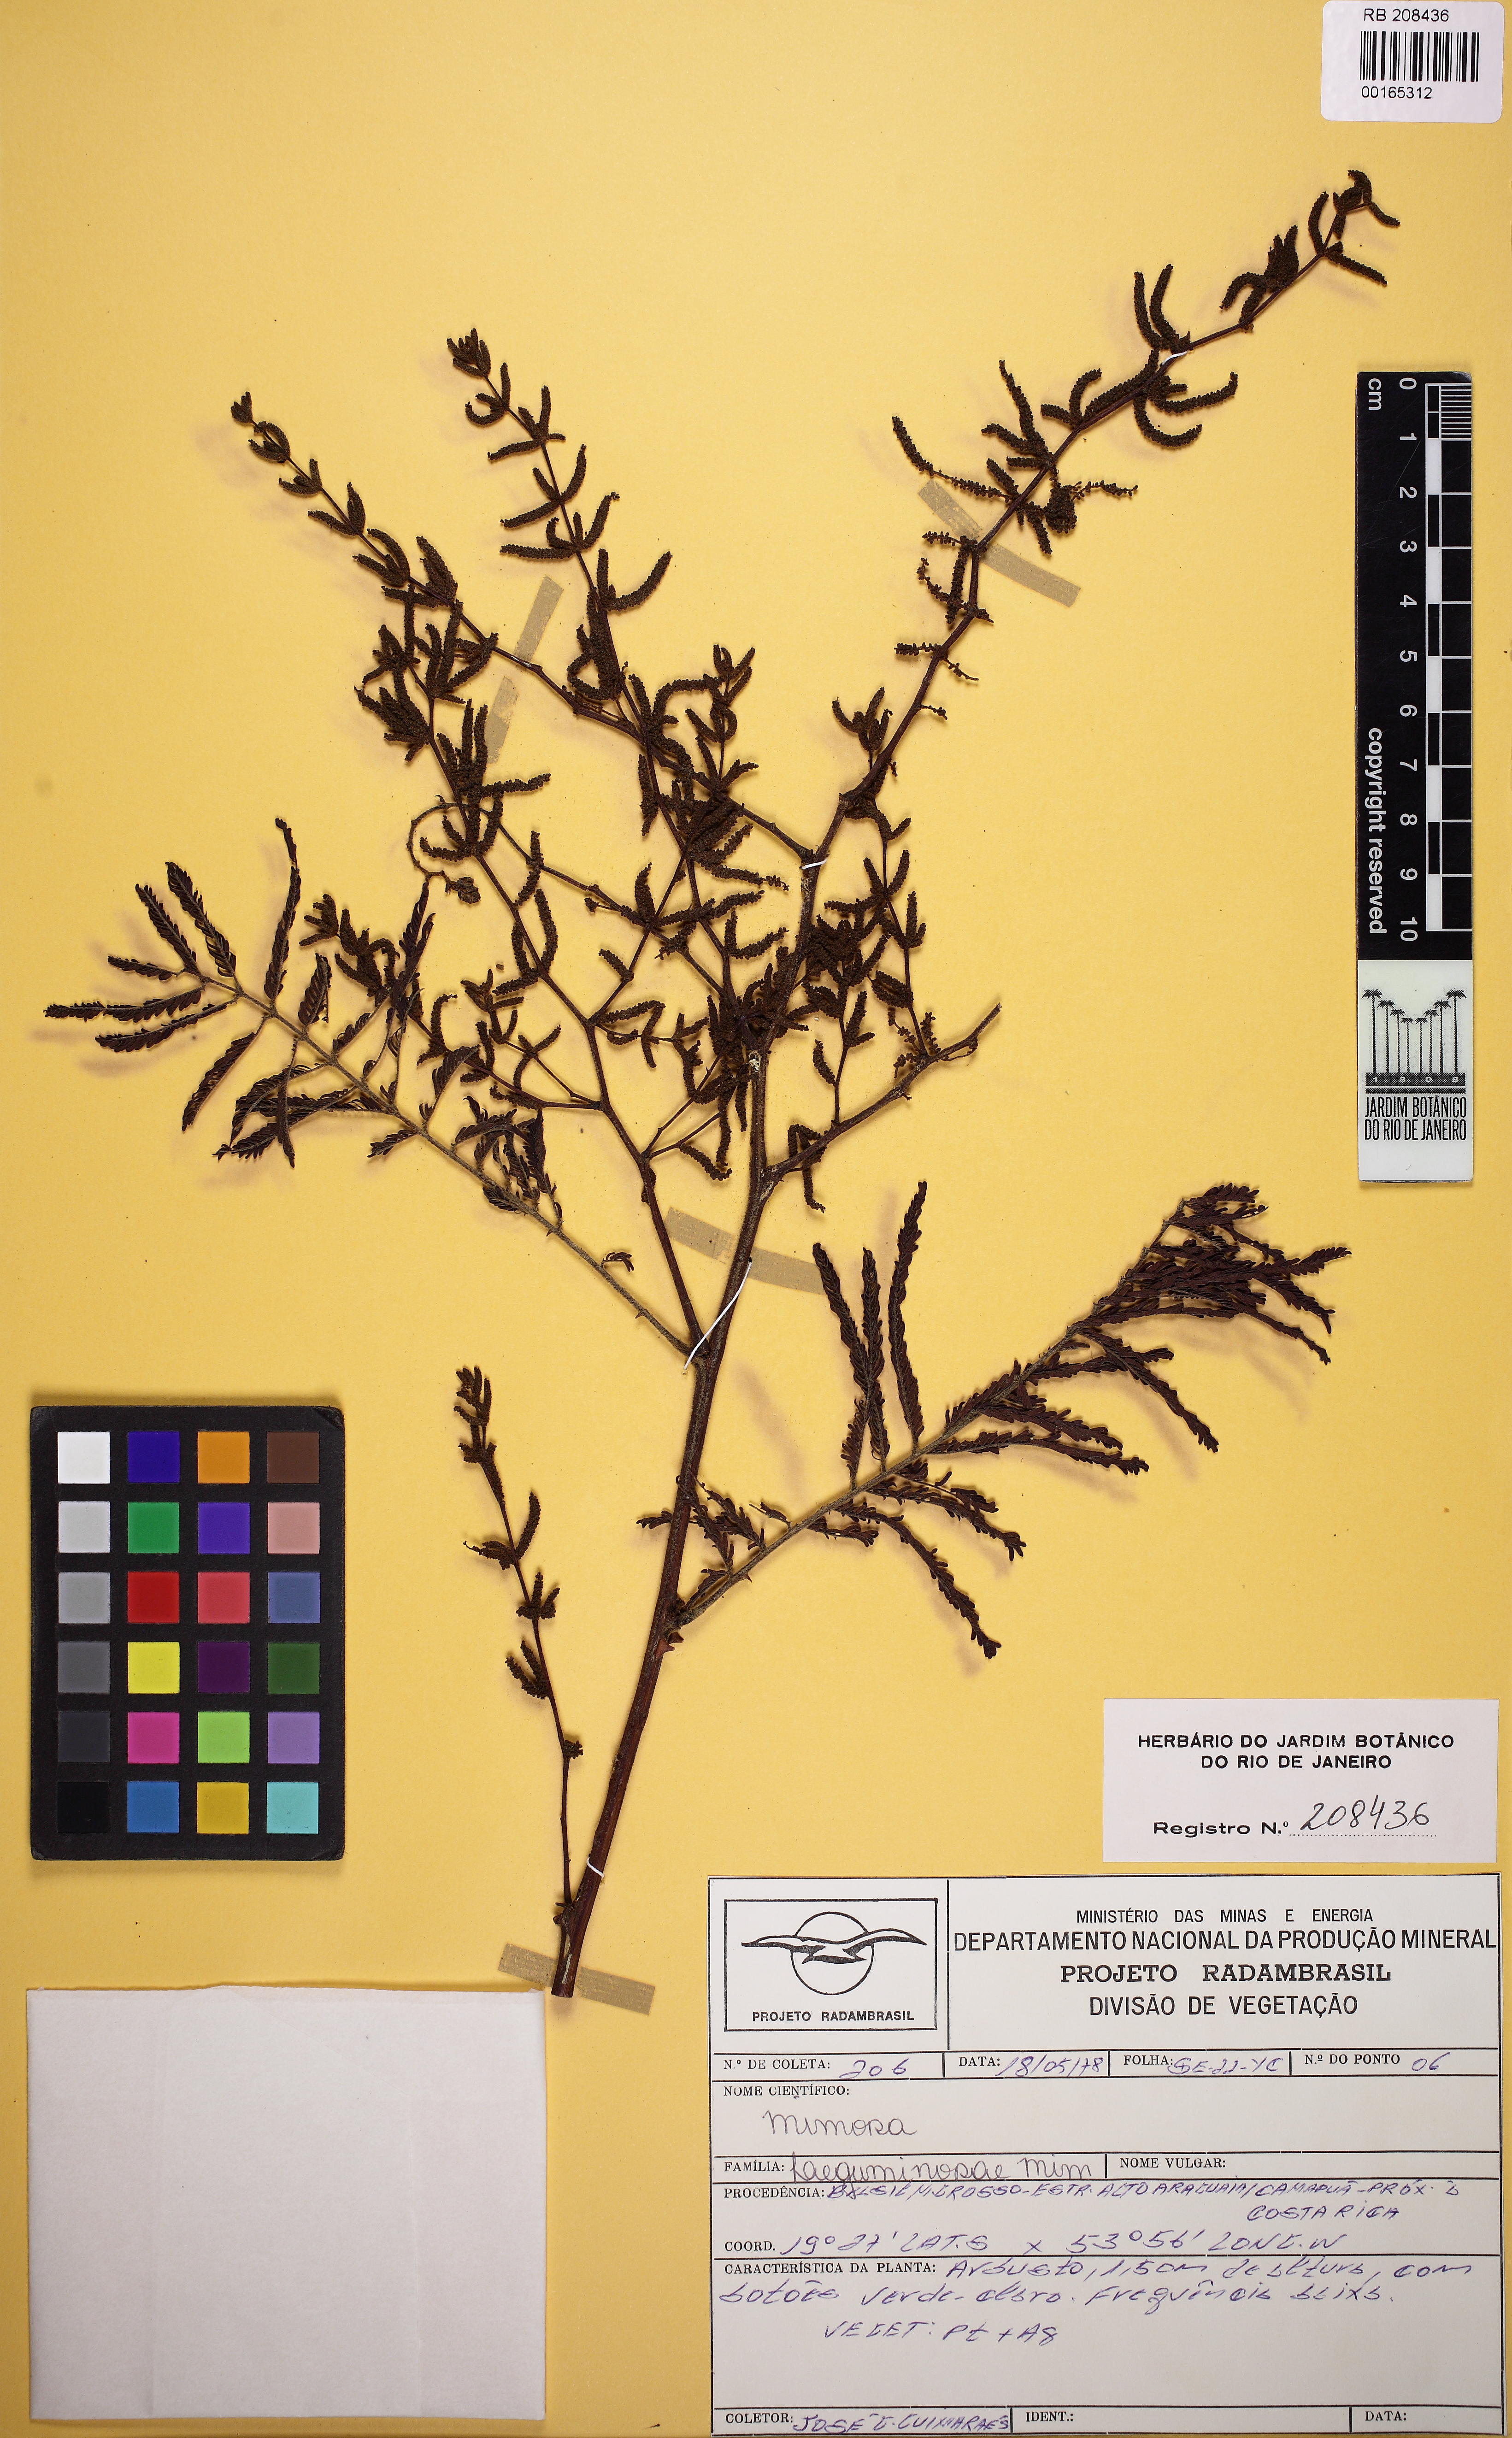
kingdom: Plantae
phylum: Tracheophyta
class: Magnoliopsida
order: Fabales
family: Fabaceae
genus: Mimosa
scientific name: Mimosa
